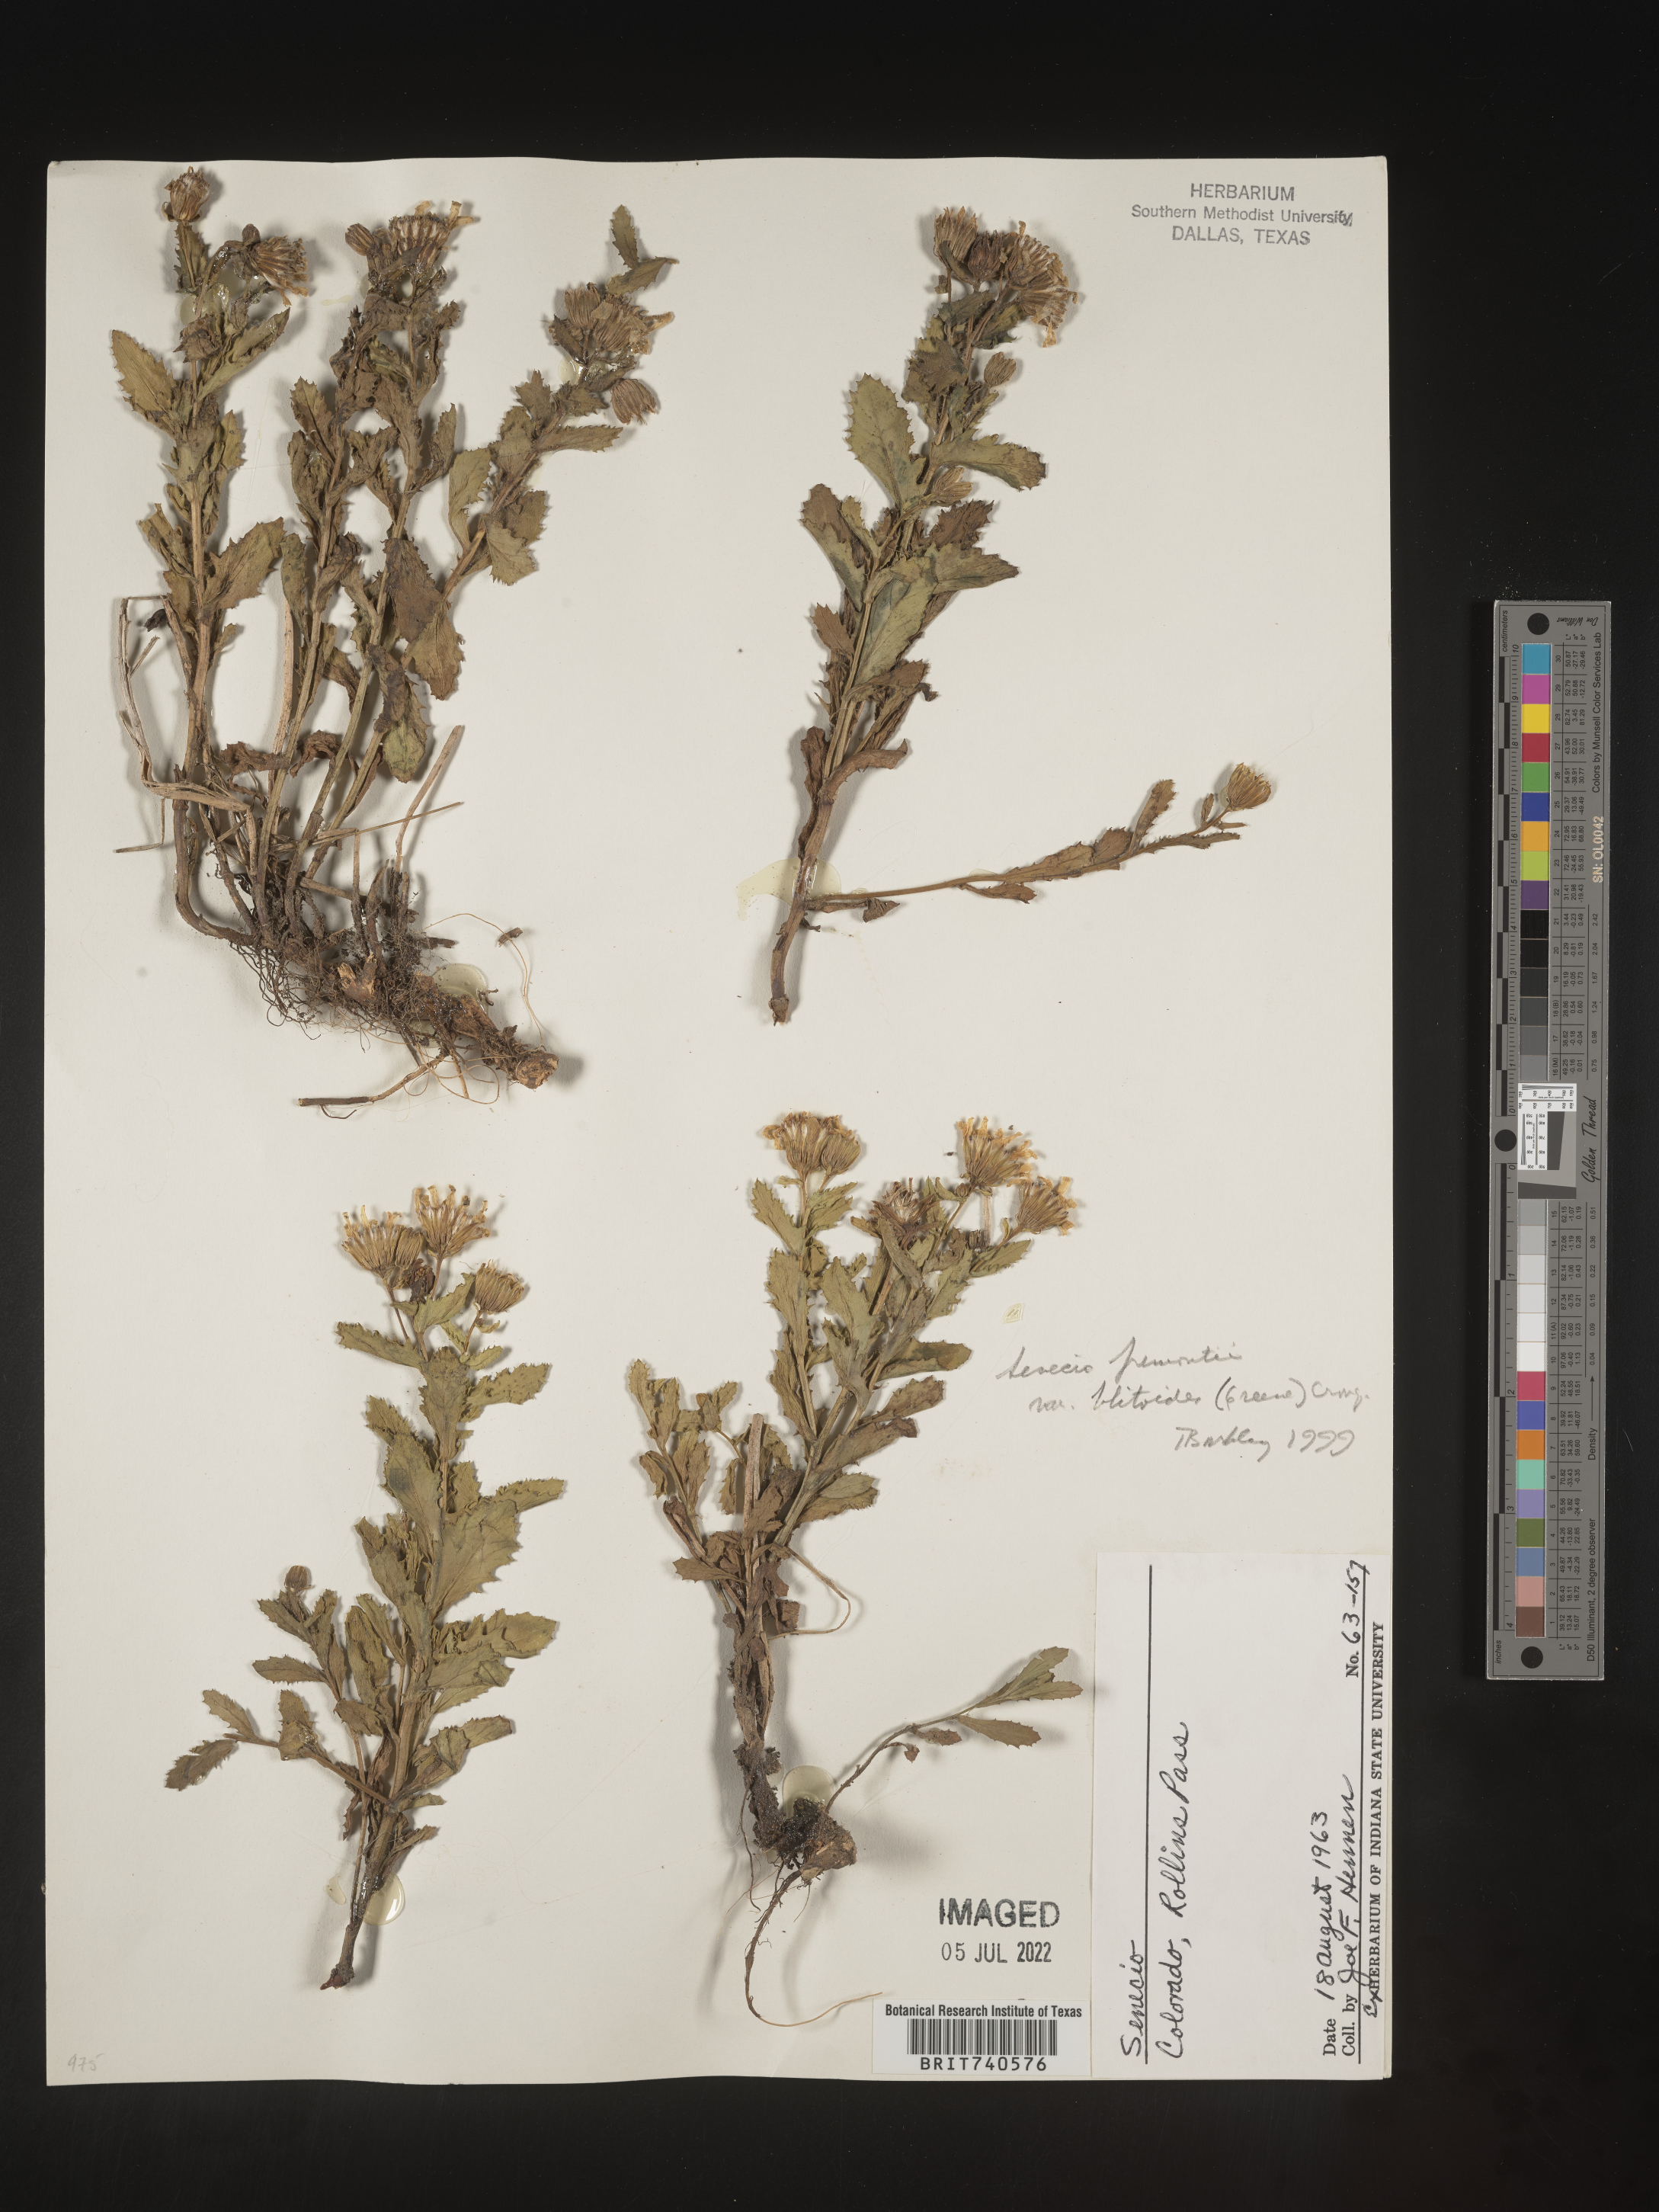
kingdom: Plantae
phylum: Tracheophyta
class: Magnoliopsida
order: Asterales
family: Asteraceae
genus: Senecio
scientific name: Senecio blitoides
